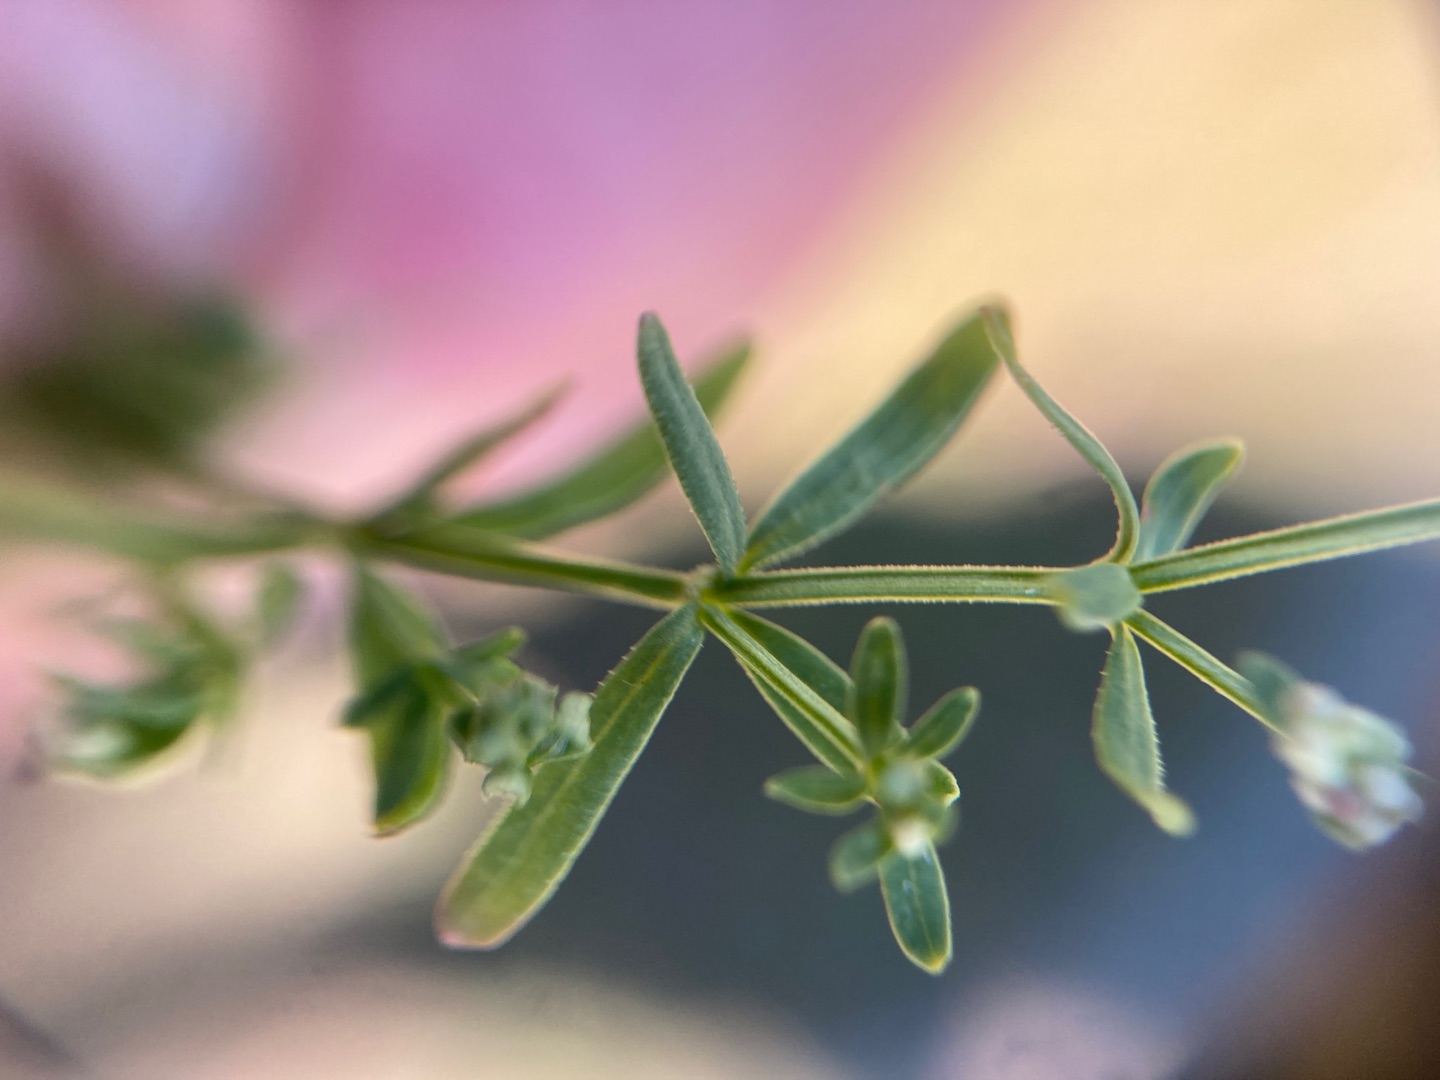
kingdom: Plantae
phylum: Tracheophyta
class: Magnoliopsida
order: Gentianales
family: Rubiaceae
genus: Galium
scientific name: Galium palustre
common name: Kær-snerre
